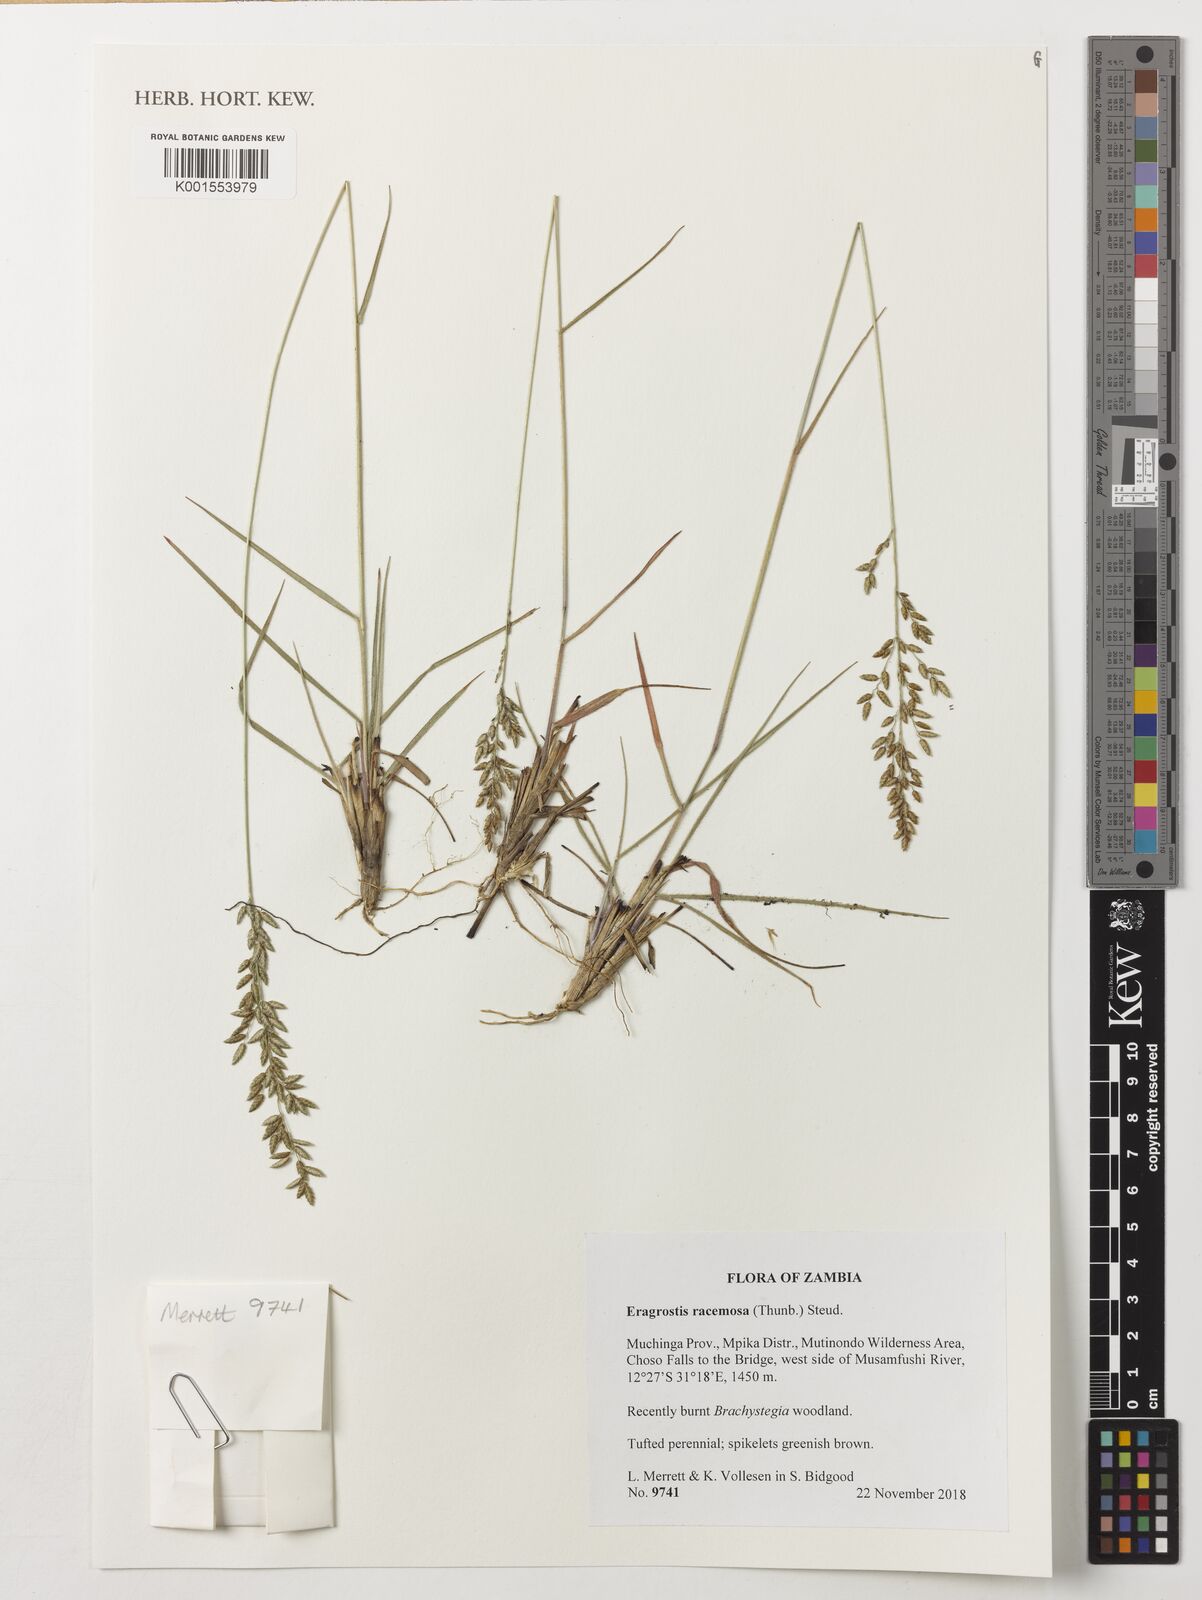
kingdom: Plantae
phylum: Tracheophyta
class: Liliopsida
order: Poales
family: Poaceae
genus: Eragrostis
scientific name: Eragrostis racemosa
